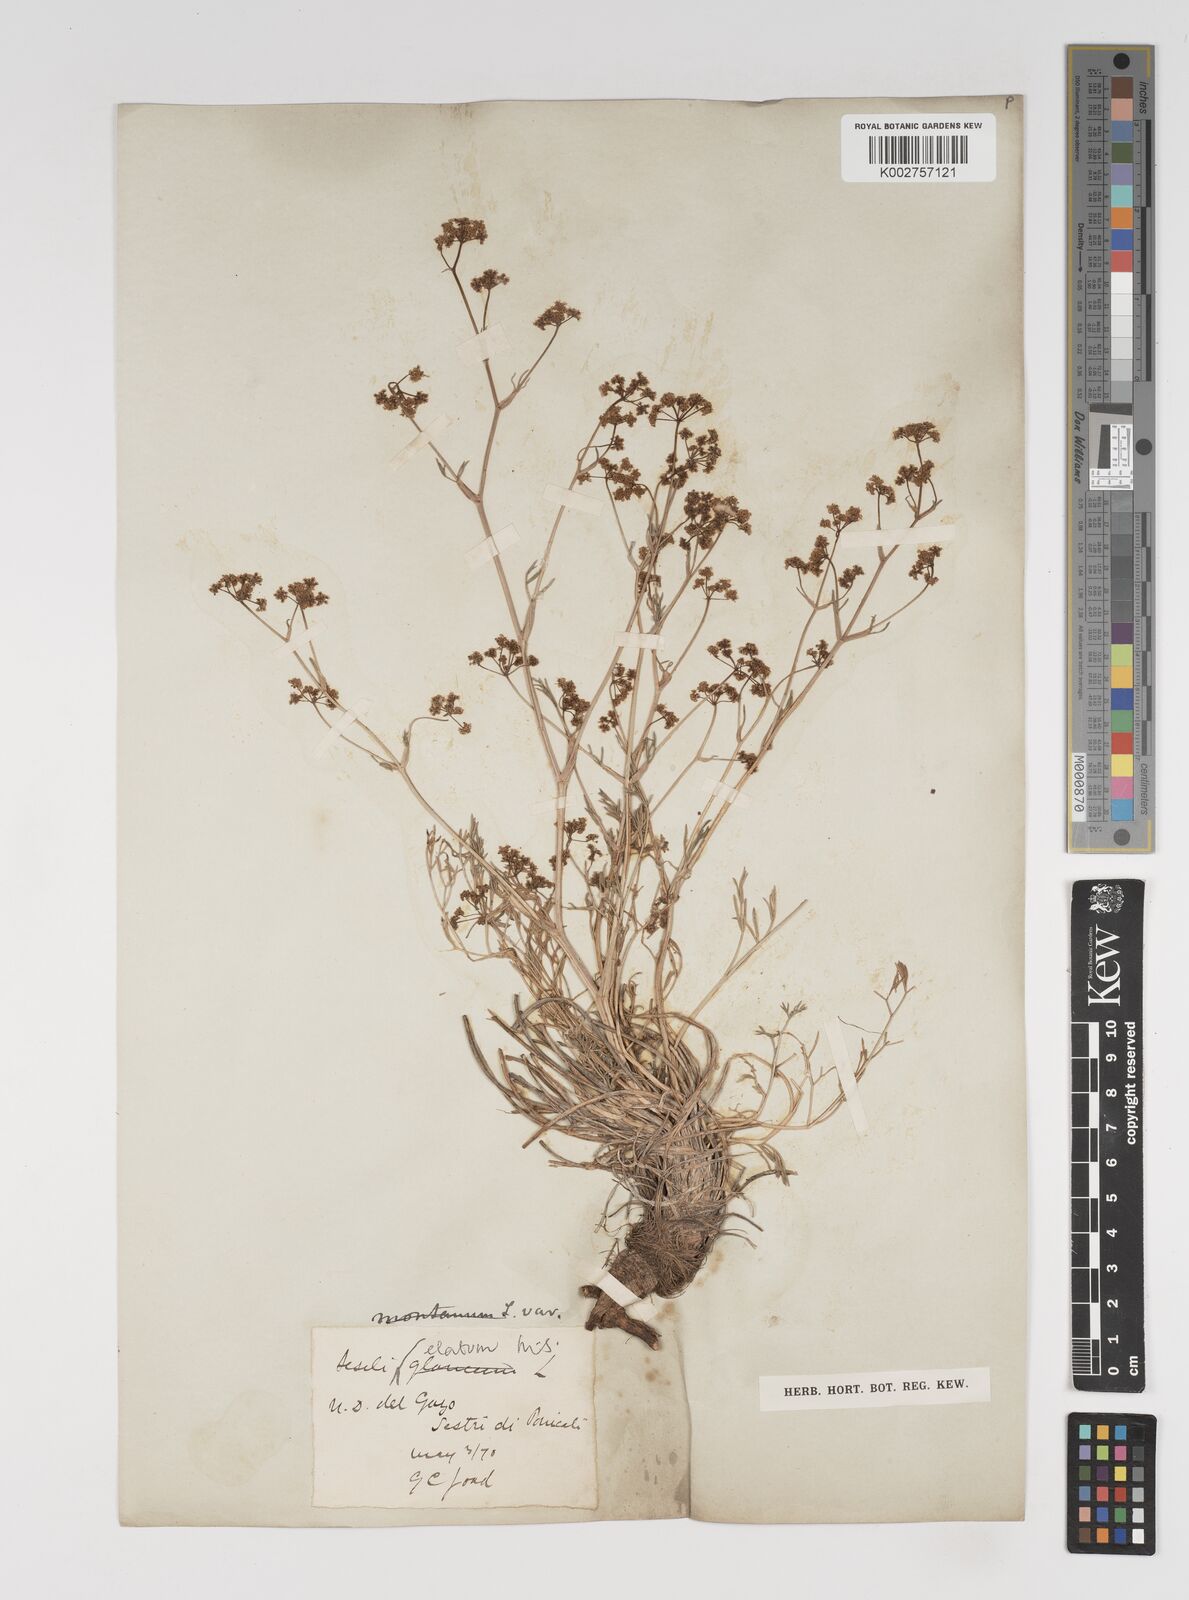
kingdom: Plantae
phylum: Tracheophyta
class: Magnoliopsida
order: Apiales
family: Apiaceae
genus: Seseli
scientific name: Seseli longifolium
